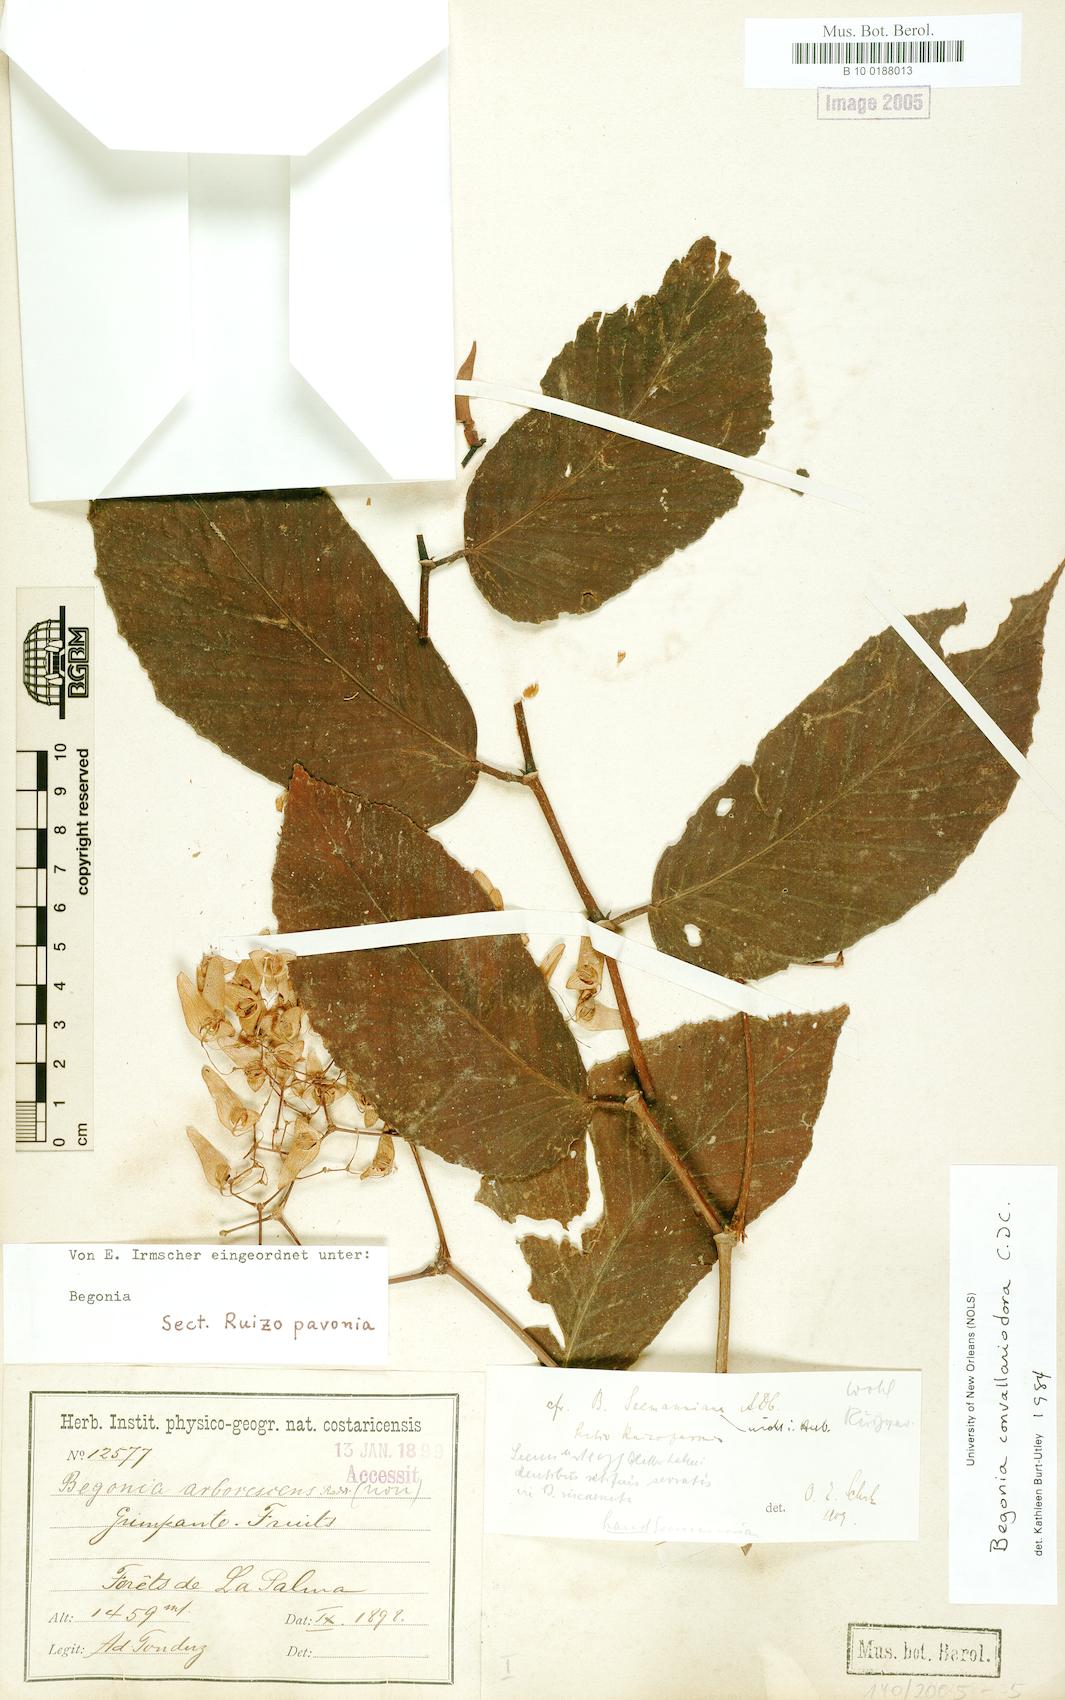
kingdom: Plantae
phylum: Tracheophyta
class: Magnoliopsida
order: Cucurbitales
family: Begoniaceae
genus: Begonia
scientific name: Begonia convallariodora
